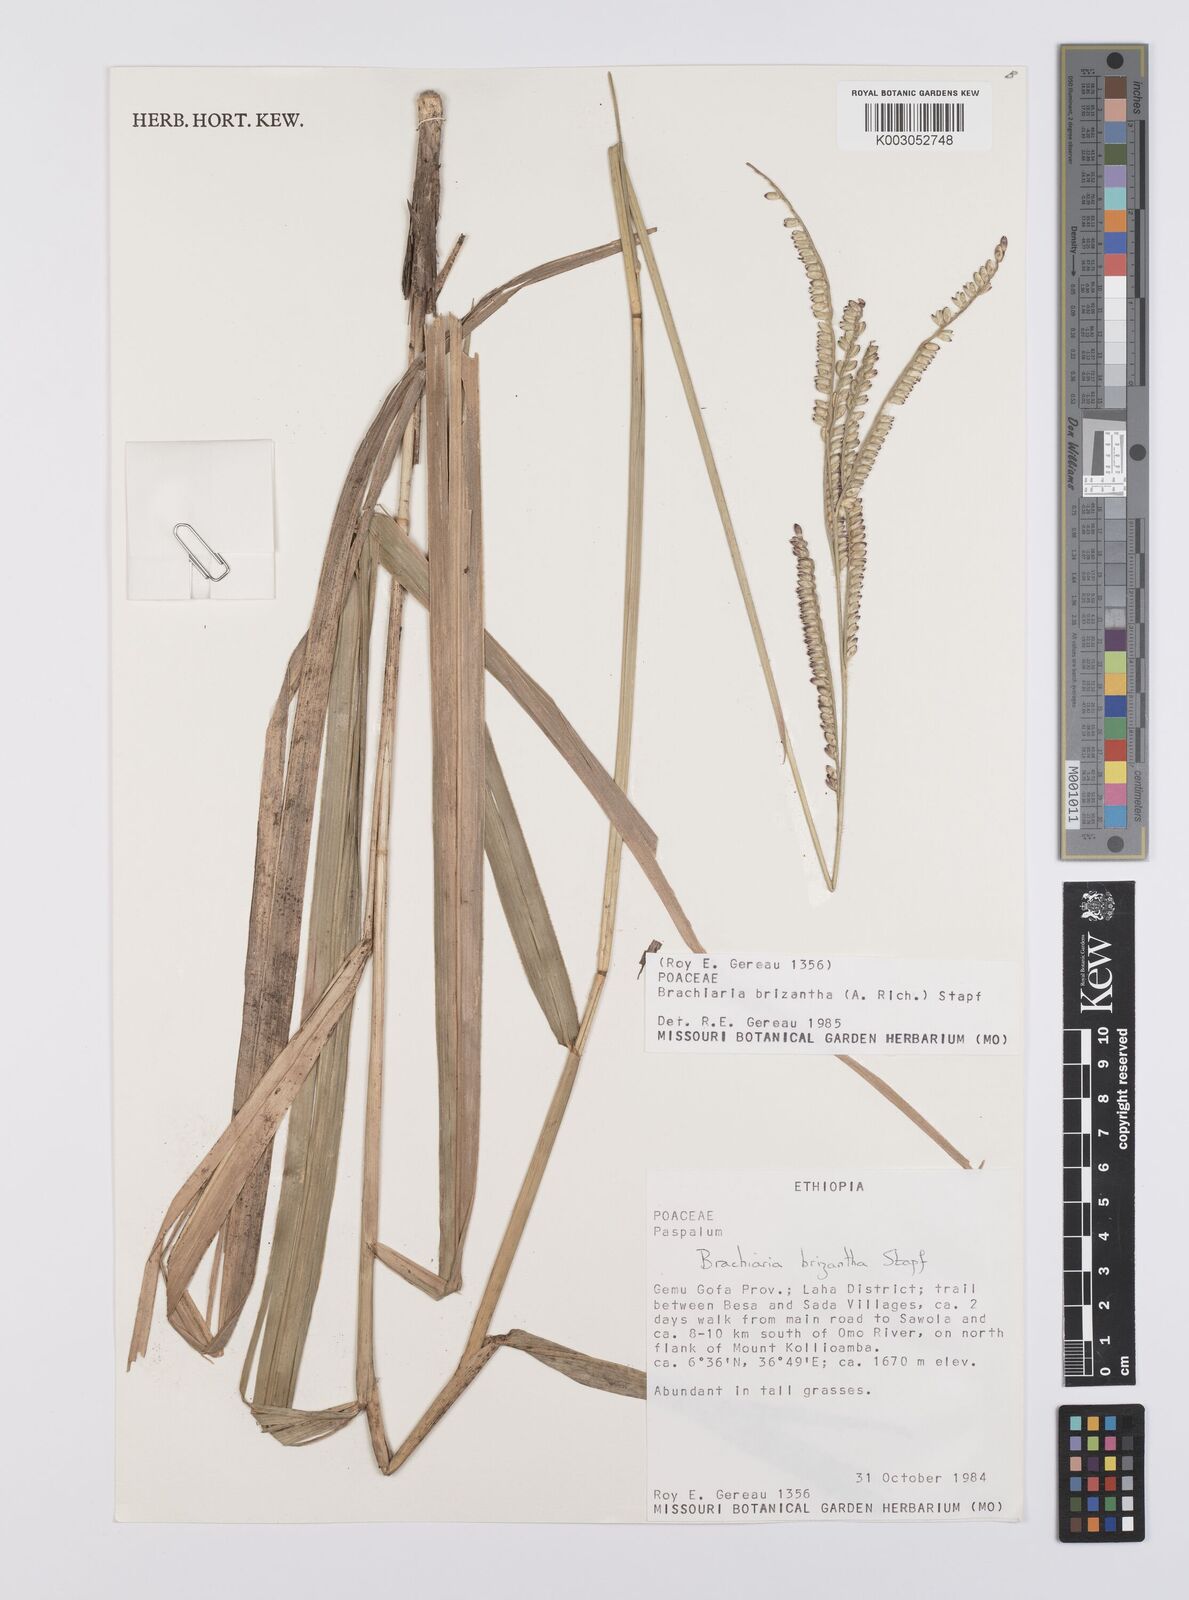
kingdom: Plantae
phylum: Tracheophyta
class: Liliopsida
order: Poales
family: Poaceae
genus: Urochloa
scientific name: Urochloa brizantha
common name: Palisade signalgrass
